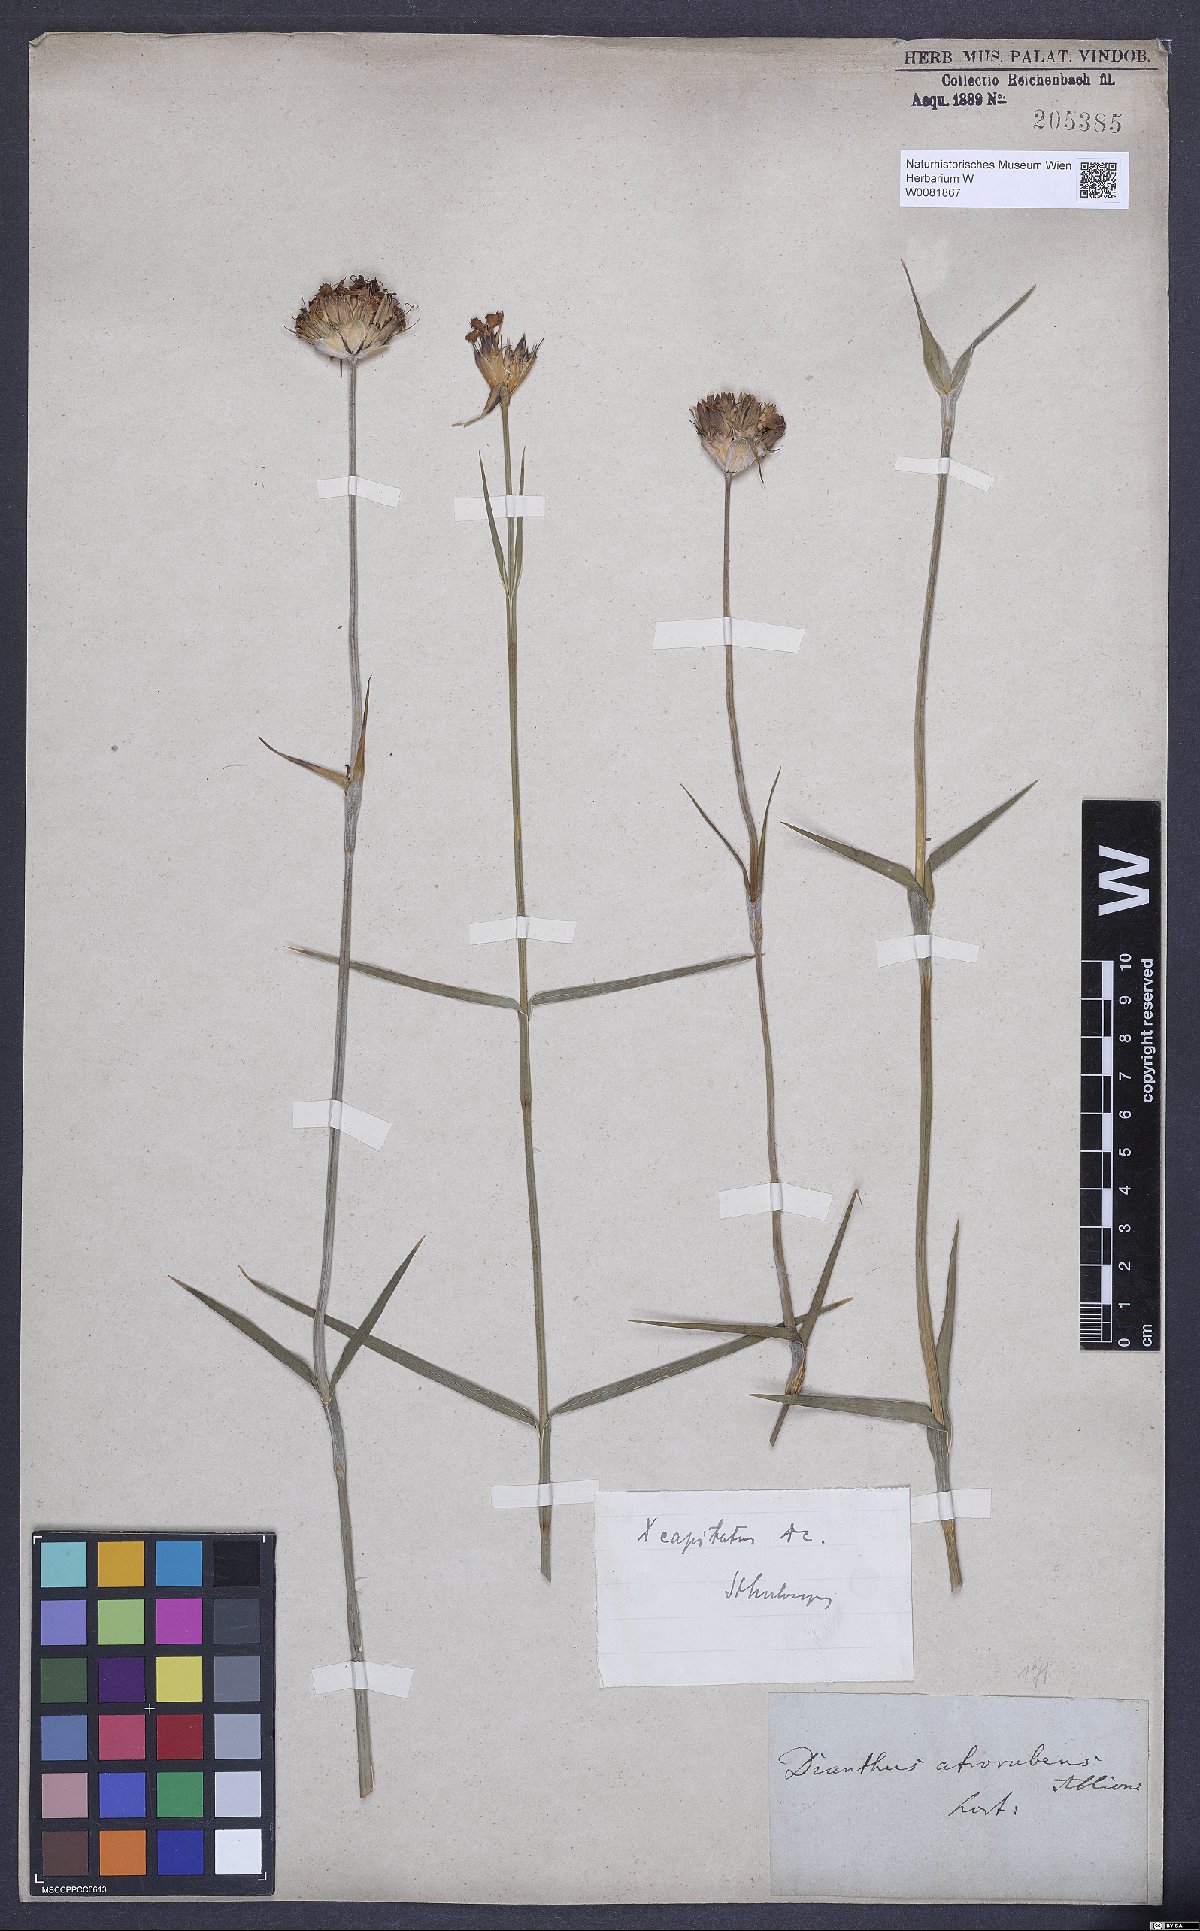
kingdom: Plantae
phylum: Tracheophyta
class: Magnoliopsida
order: Caryophyllales
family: Caryophyllaceae
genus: Dianthus
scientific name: Dianthus capitatus
